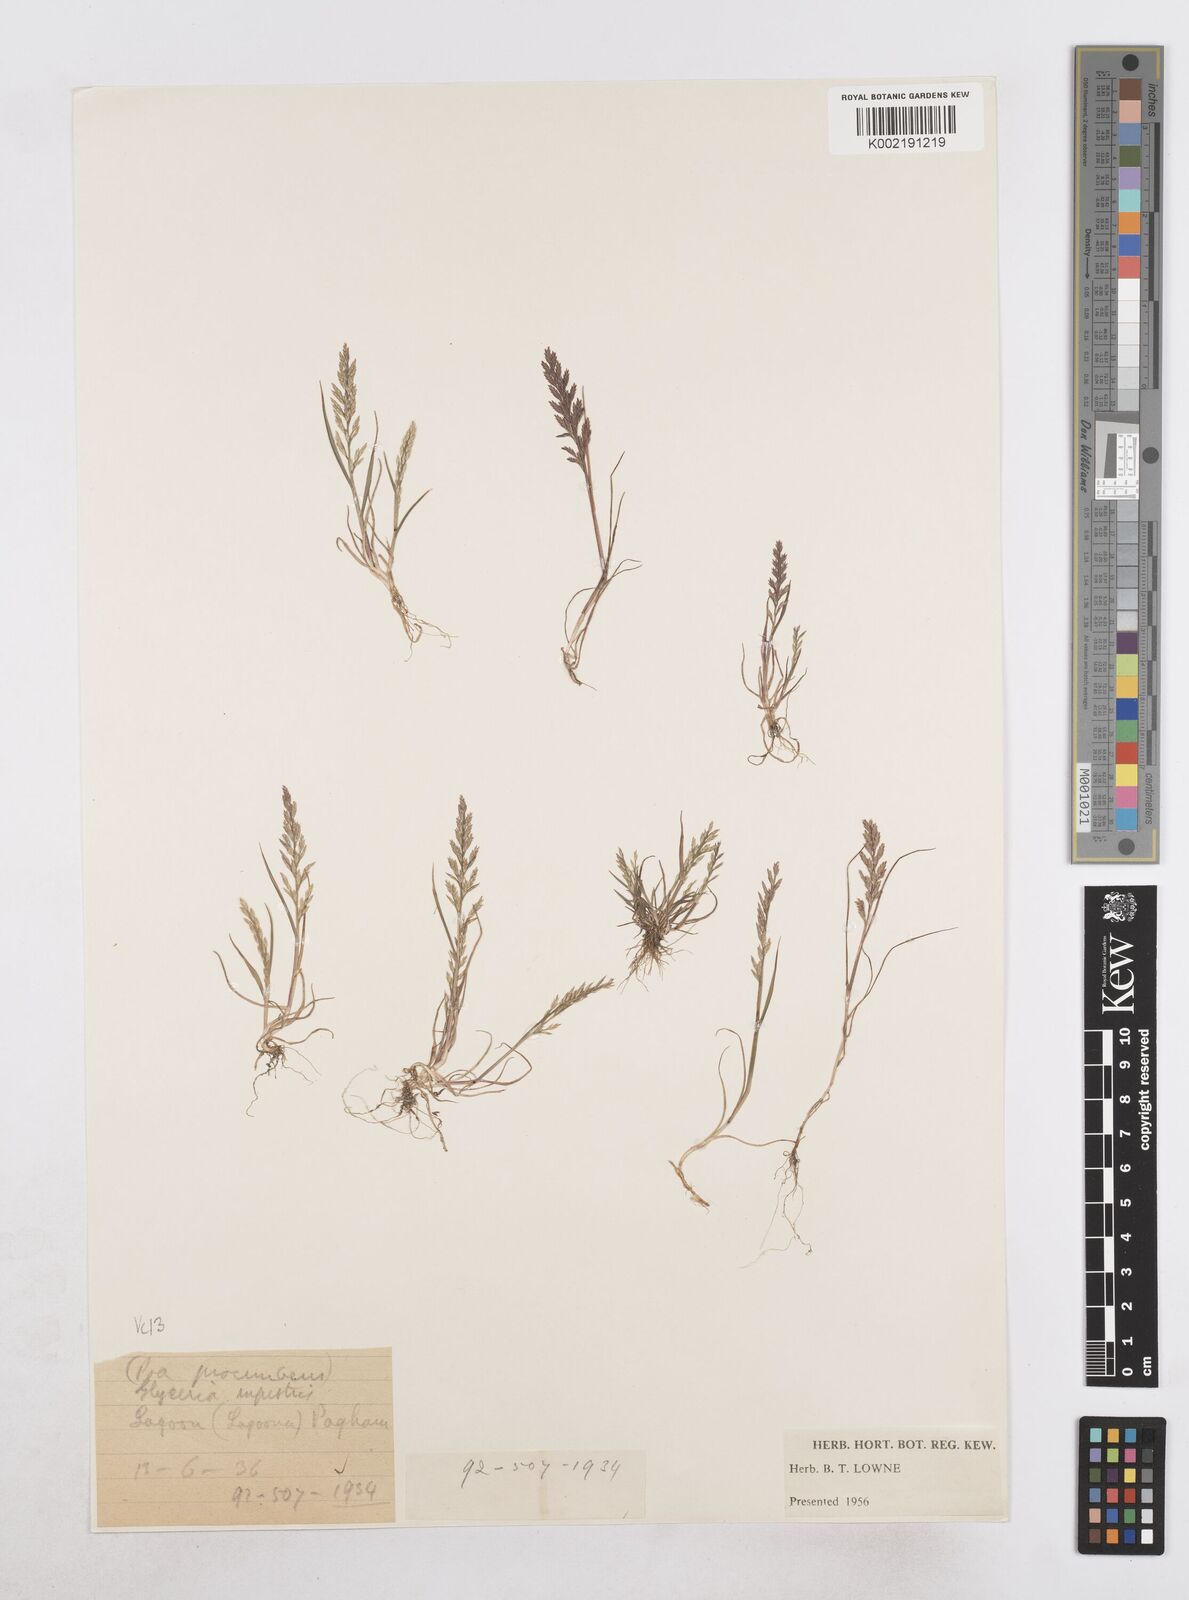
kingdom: Plantae
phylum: Tracheophyta
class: Liliopsida
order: Poales
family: Poaceae
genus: Catapodium
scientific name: Catapodium rigidum
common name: Fern-grass
